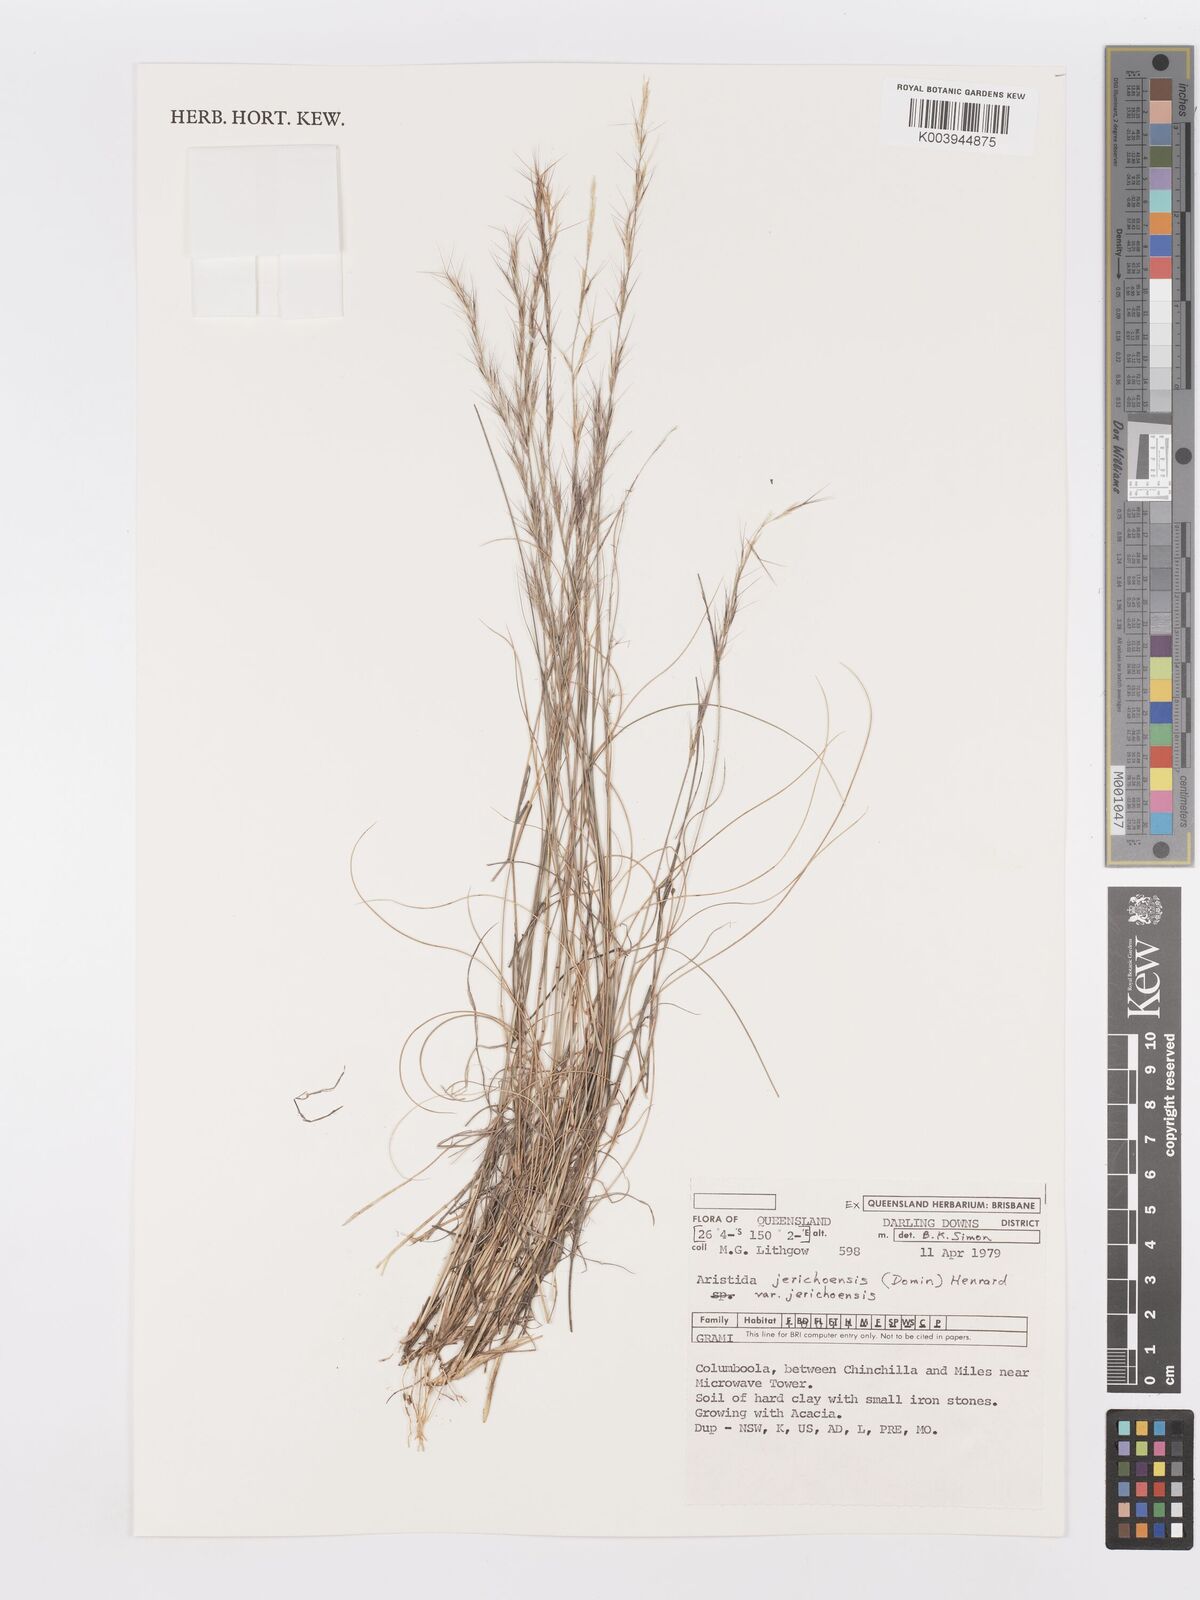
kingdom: Plantae
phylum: Tracheophyta
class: Liliopsida
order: Poales
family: Poaceae
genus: Aristida
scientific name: Aristida jerichoensis
